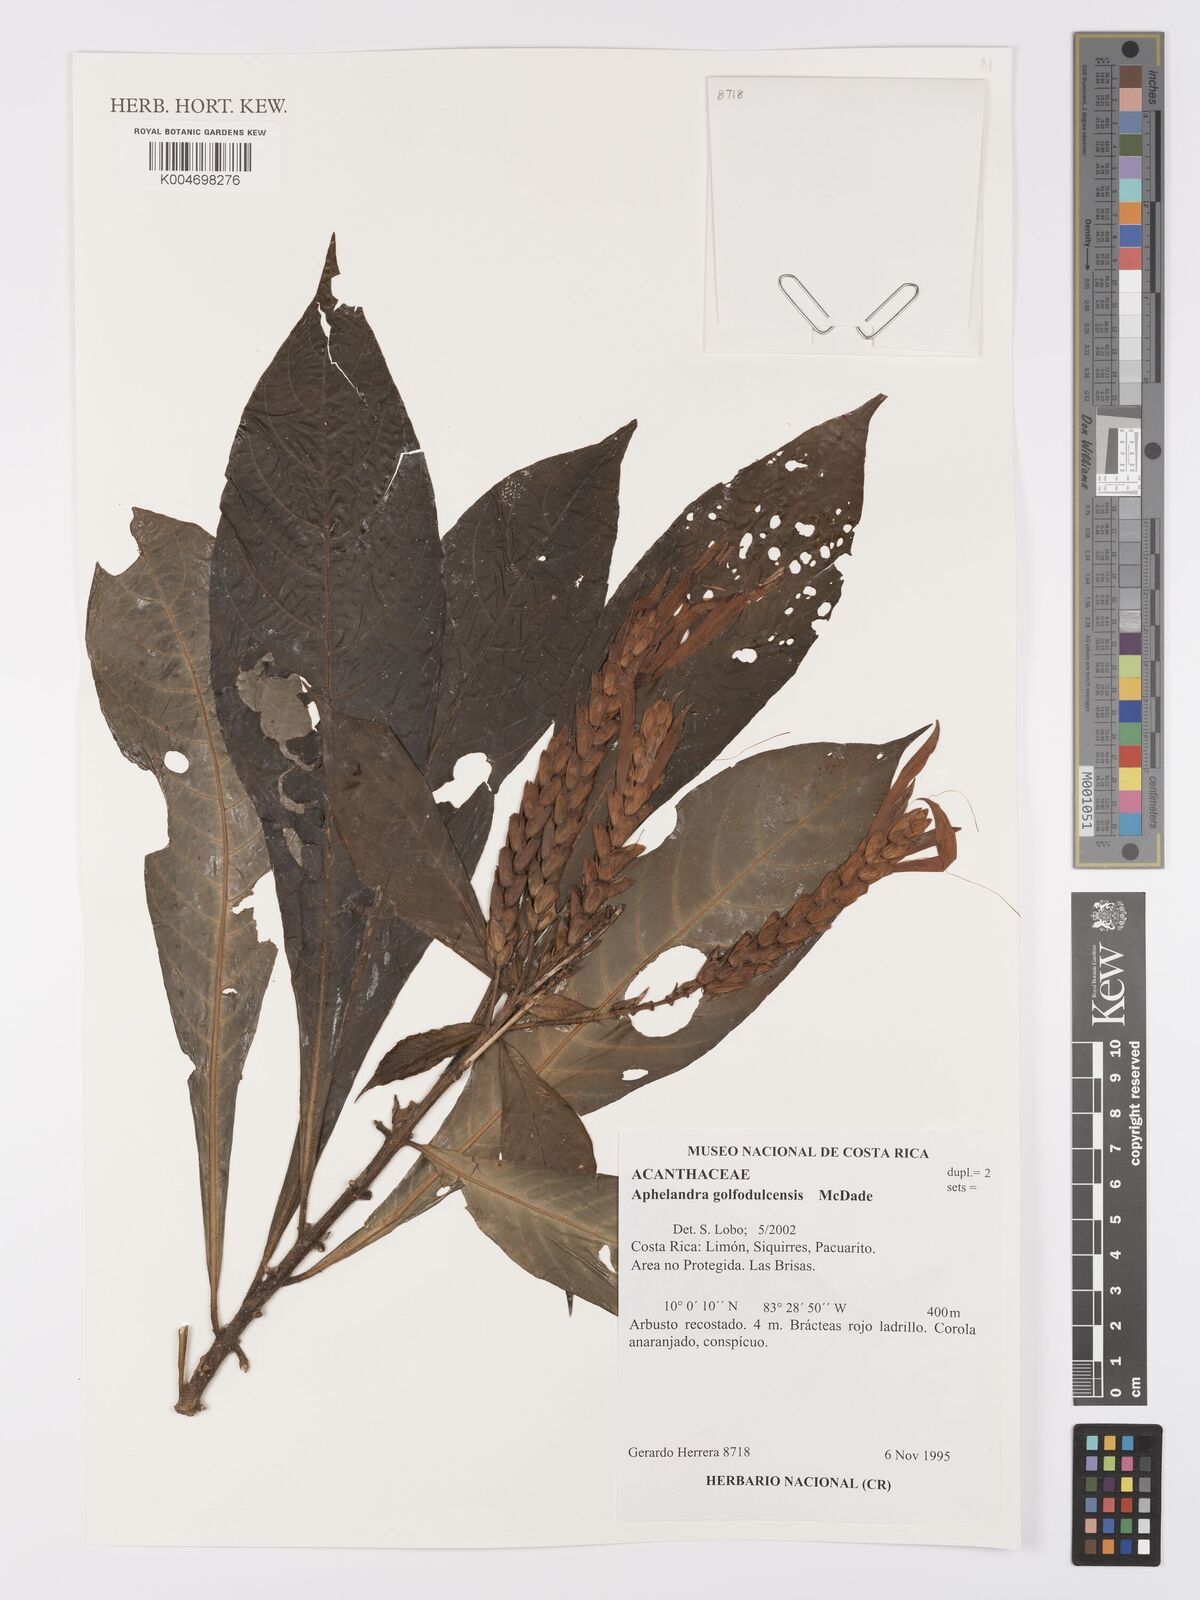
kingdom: Plantae
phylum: Tracheophyta
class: Magnoliopsida
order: Lamiales
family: Acanthaceae
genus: Aphelandra
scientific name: Aphelandra golfodulcensis
